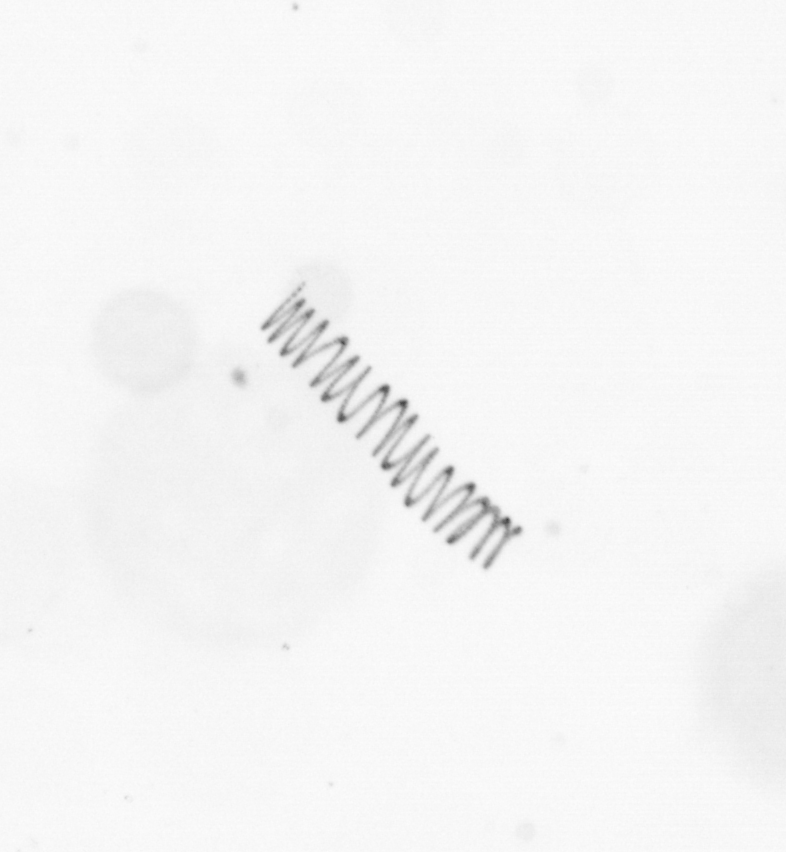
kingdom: Chromista
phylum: Ochrophyta
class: Bacillariophyceae
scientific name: Bacillariophyceae
